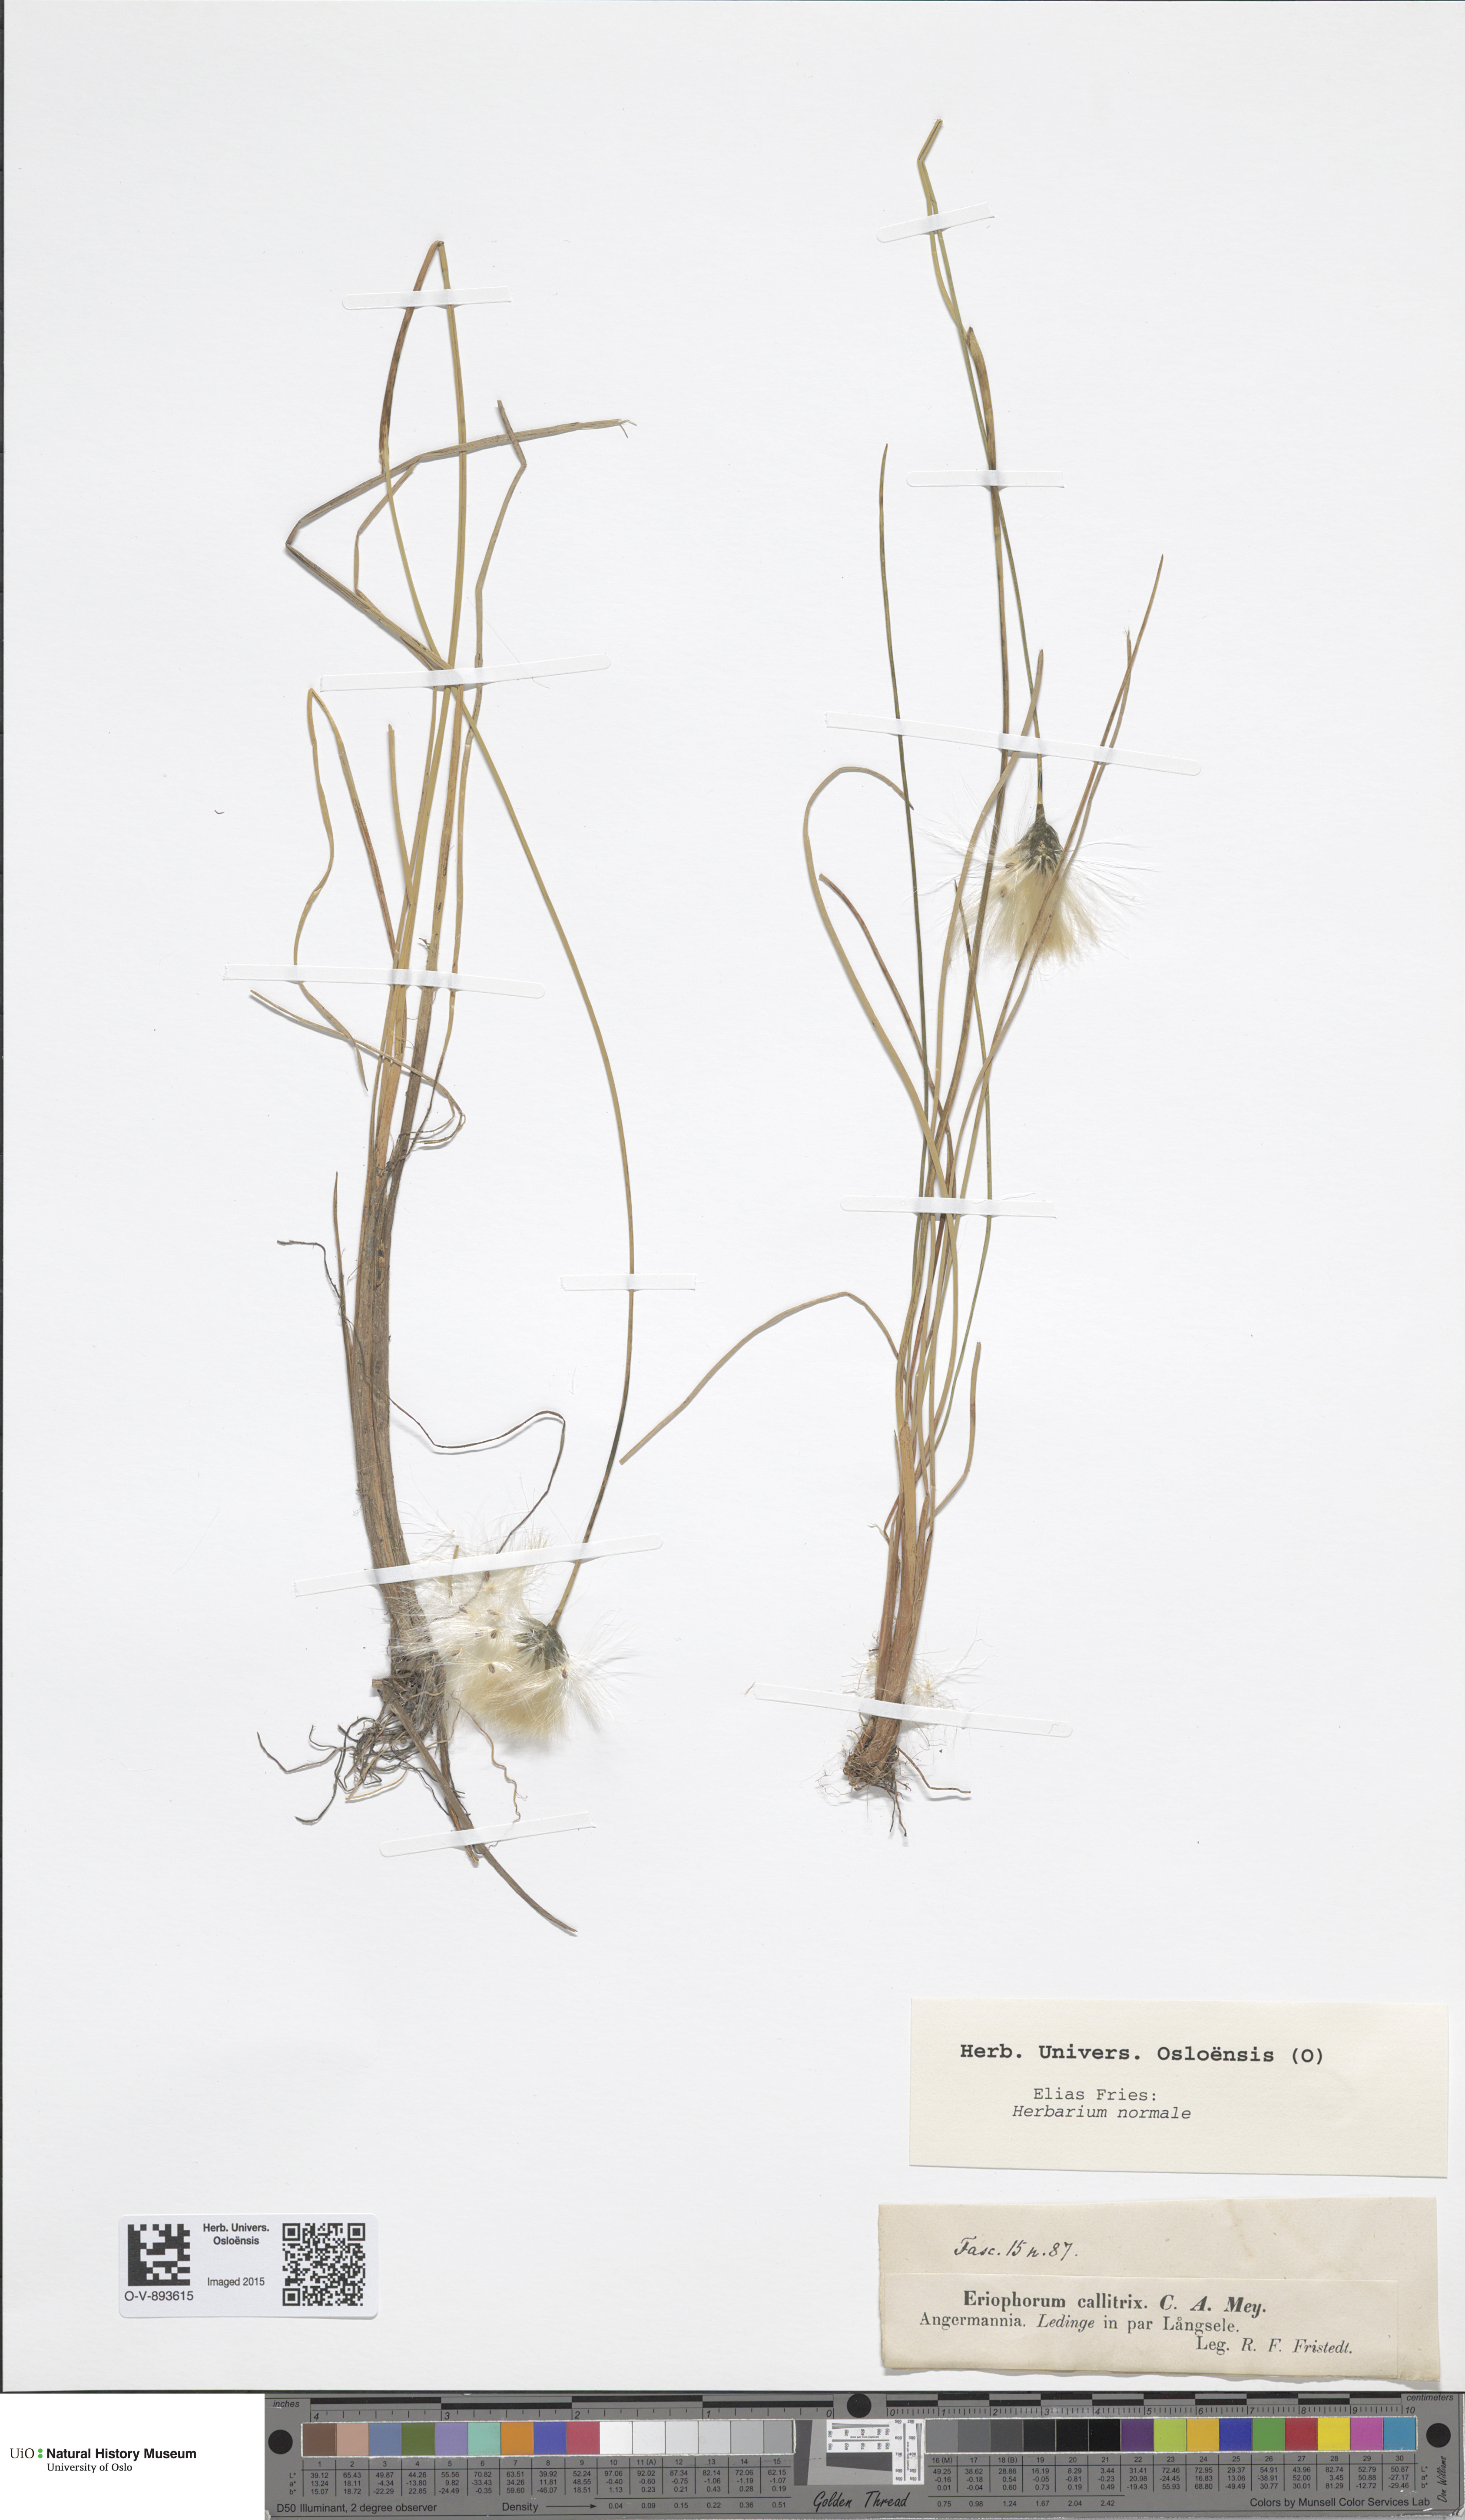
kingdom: Plantae
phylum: Tracheophyta
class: Liliopsida
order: Poales
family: Cyperaceae
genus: Eriophorum
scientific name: Eriophorum callitrix
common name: Arctic cottongrass
